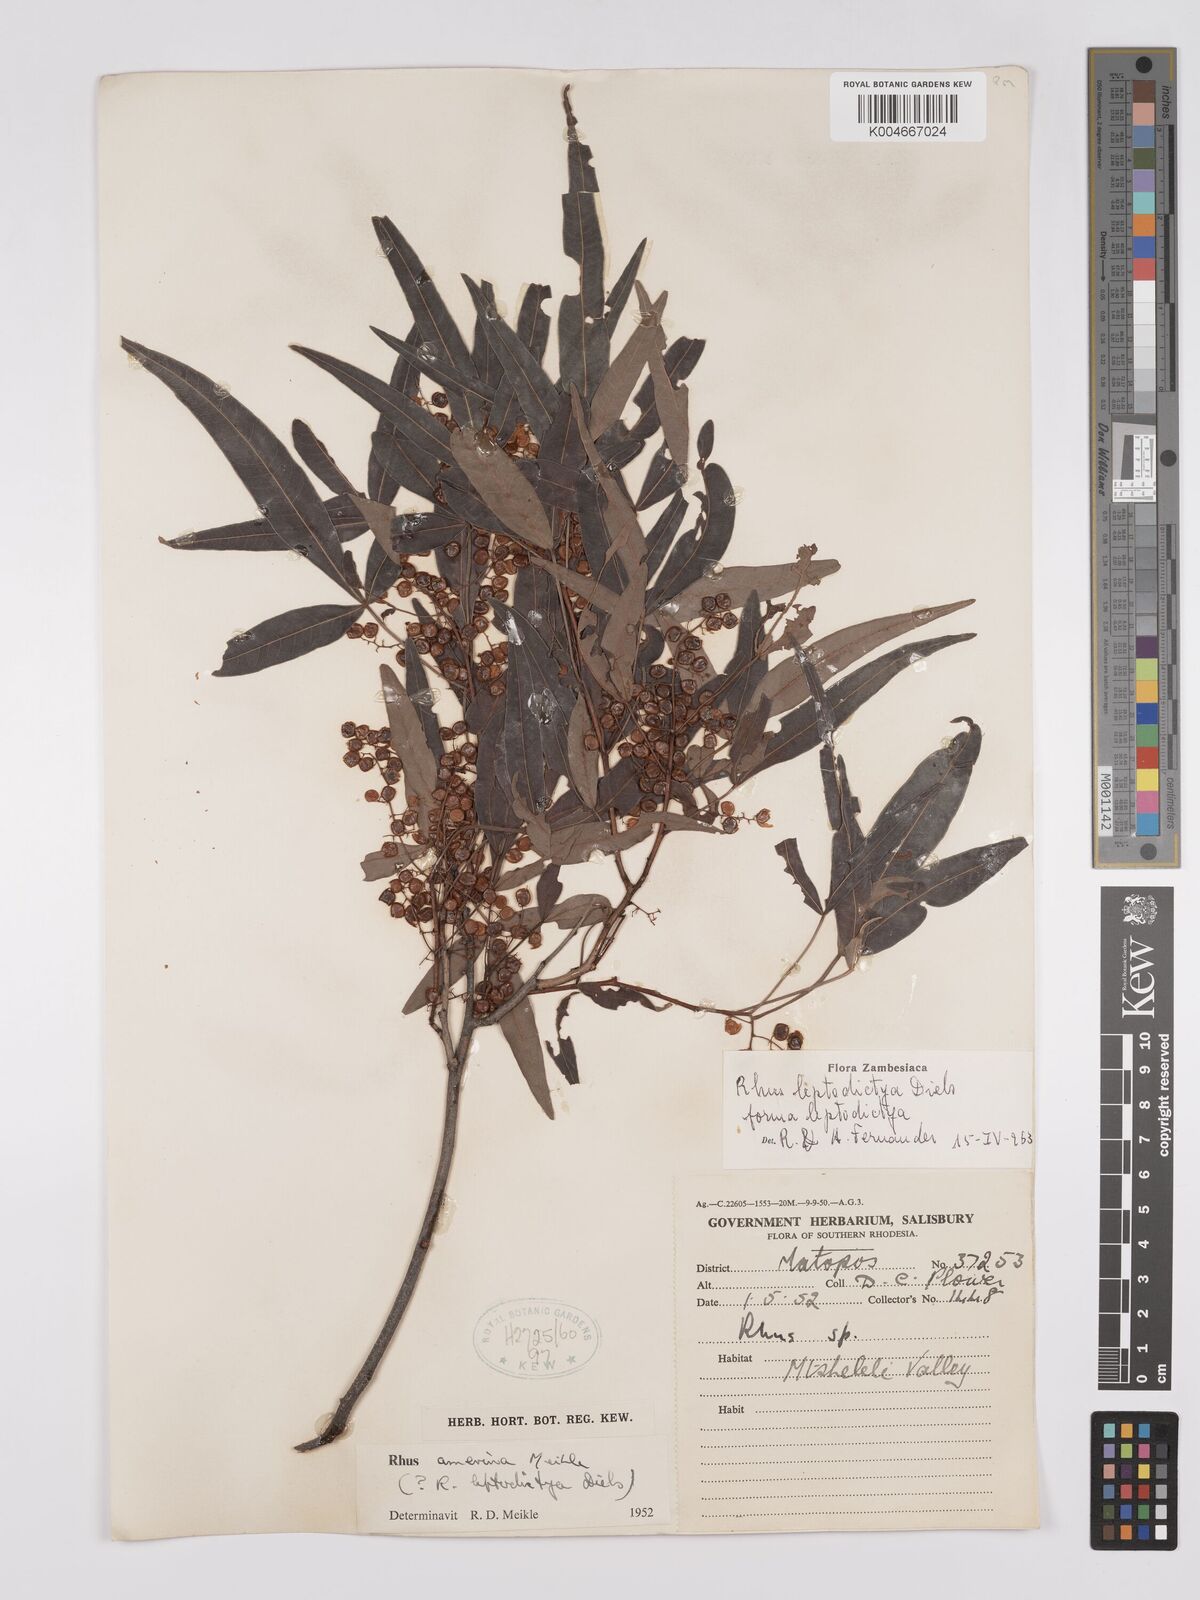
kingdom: Plantae
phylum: Tracheophyta
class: Magnoliopsida
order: Sapindales
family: Anacardiaceae
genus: Searsia
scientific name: Searsia leptodictya
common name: Mountain karee
